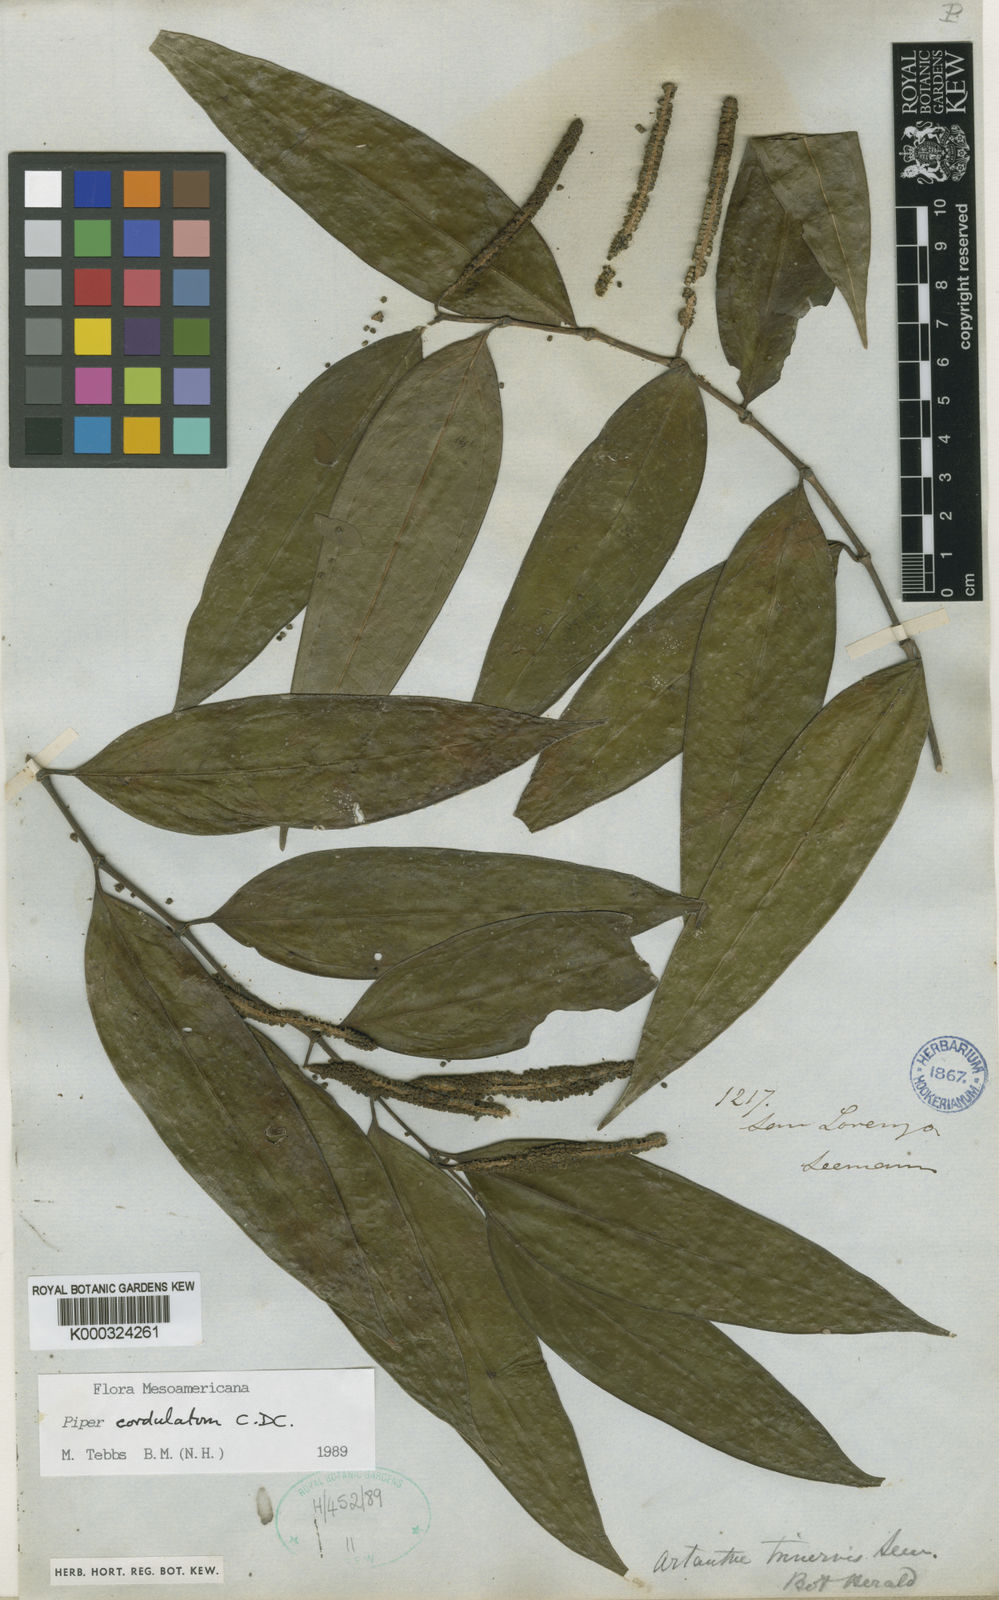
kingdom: Plantae
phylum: Tracheophyta
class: Magnoliopsida
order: Piperales
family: Piperaceae
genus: Piper
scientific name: Piper trinervium
